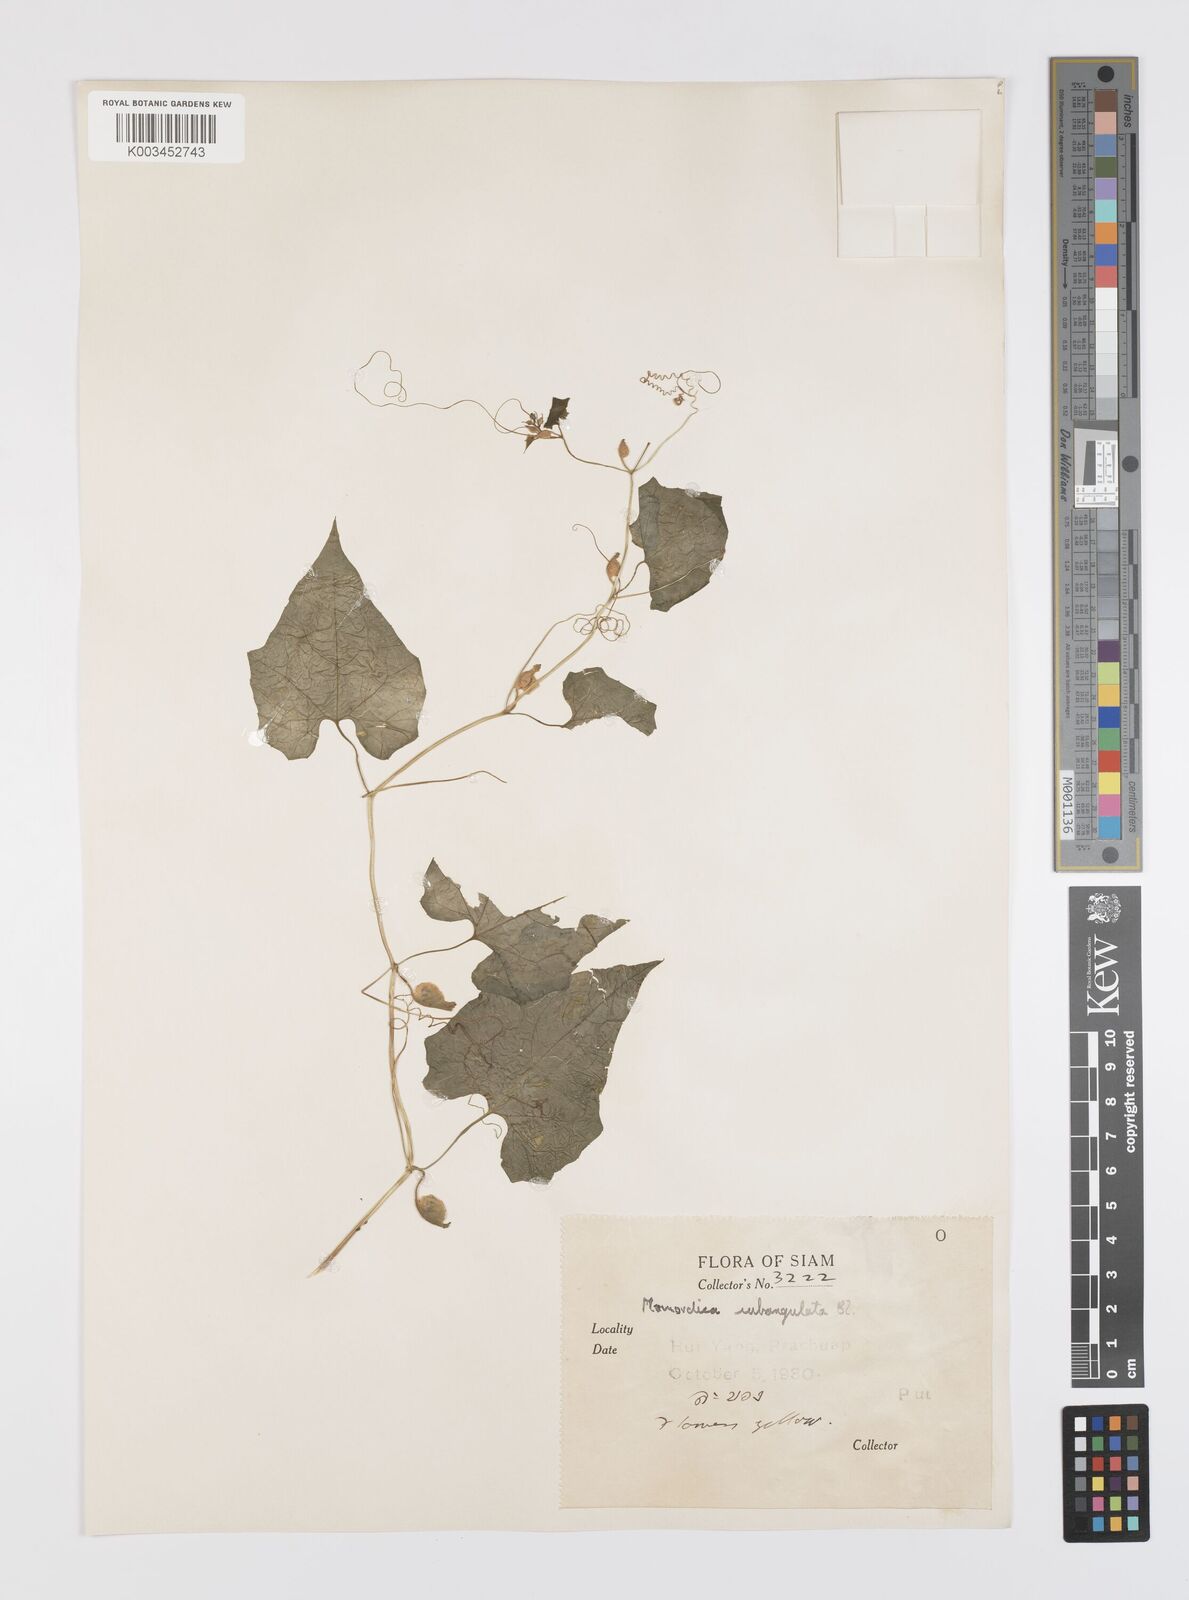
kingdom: Plantae
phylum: Tracheophyta
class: Magnoliopsida
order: Cucurbitales
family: Cucurbitaceae
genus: Momordica
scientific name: Momordica subangulata
